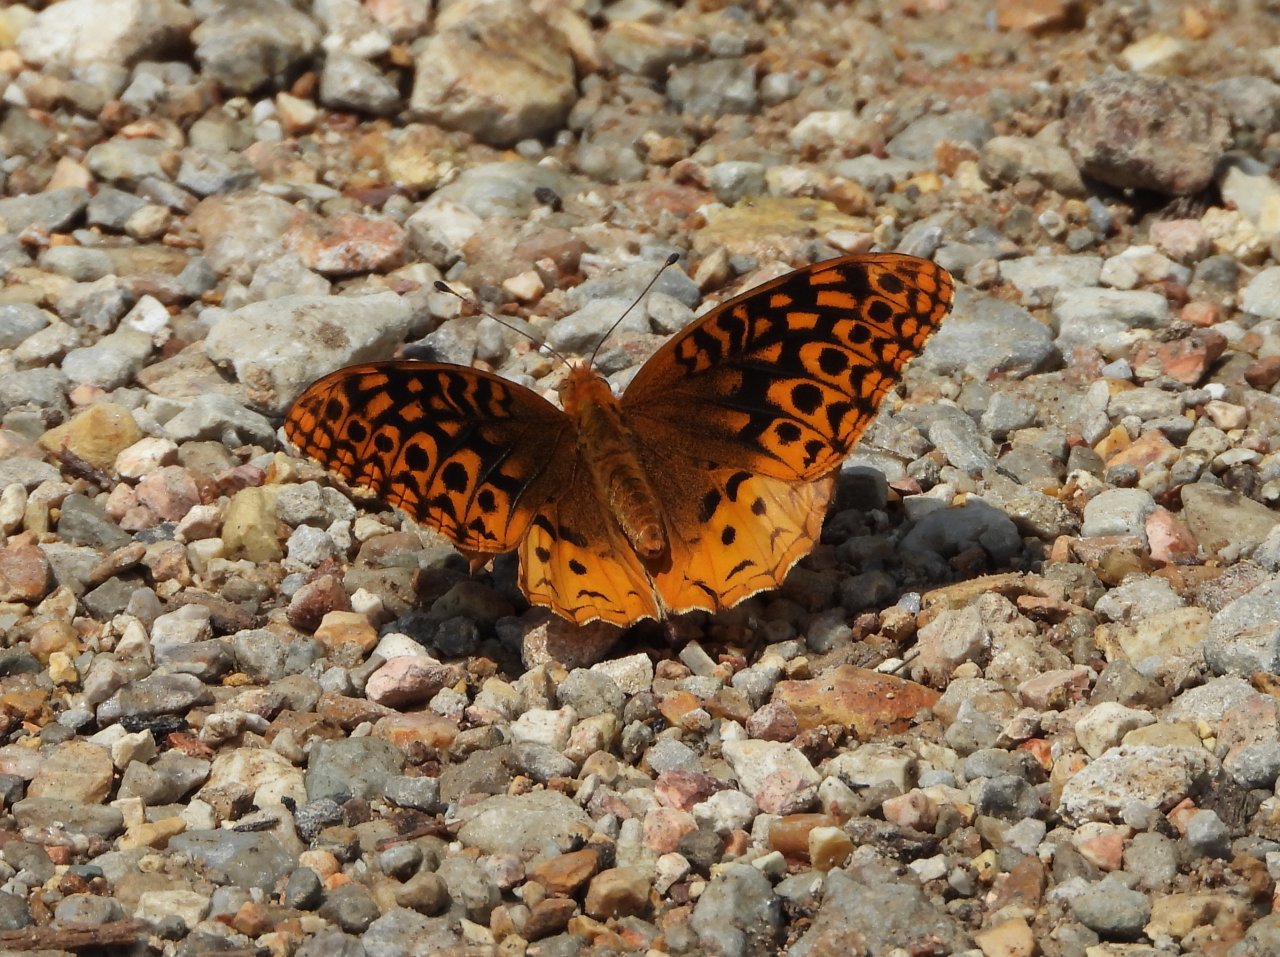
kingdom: Animalia
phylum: Arthropoda
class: Insecta
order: Lepidoptera
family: Nymphalidae
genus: Speyeria
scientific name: Speyeria cybele
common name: Great Spangled Fritillary
